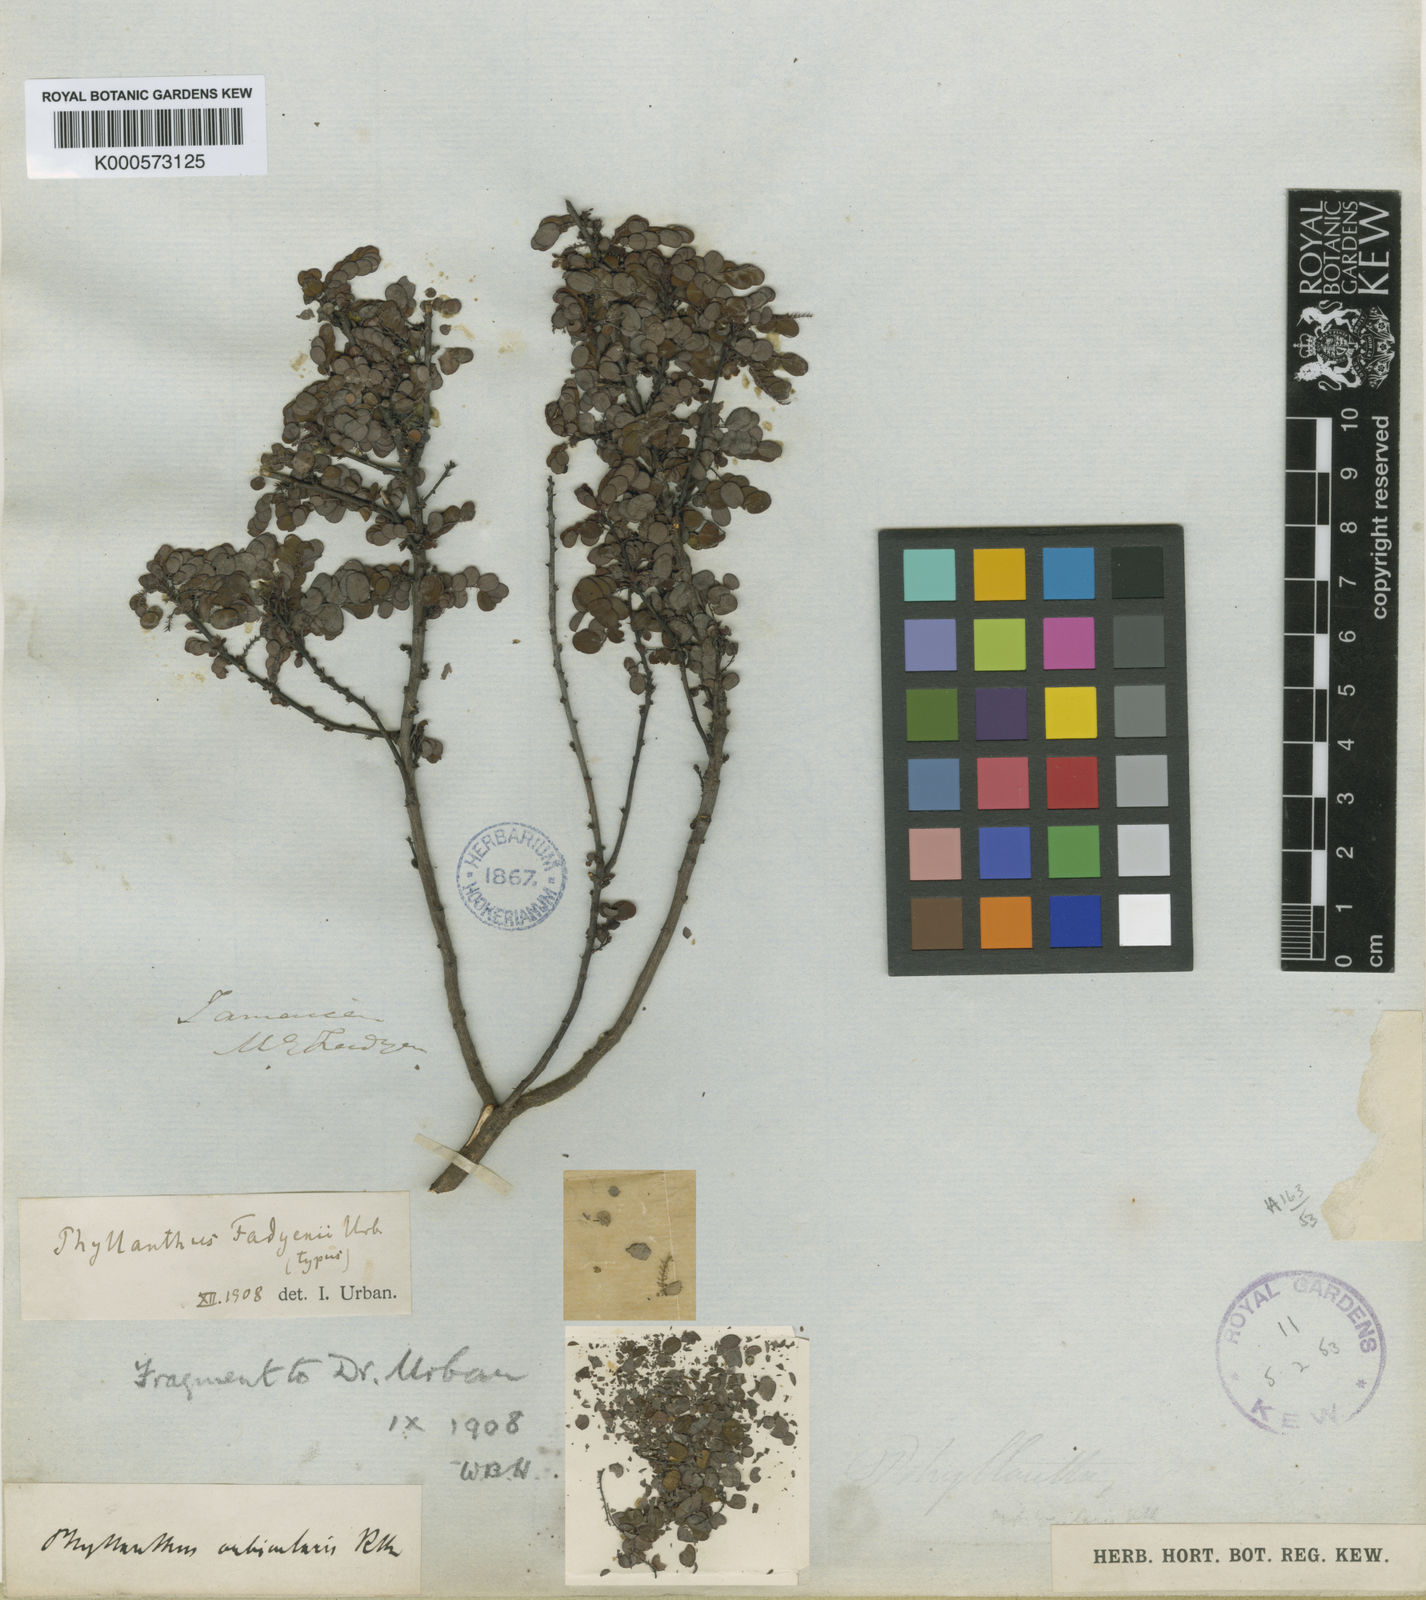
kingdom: Plantae
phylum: Tracheophyta
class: Magnoliopsida
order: Malpighiales
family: Phyllanthaceae
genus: Phyllanthus
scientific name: Phyllanthus fadyenii
